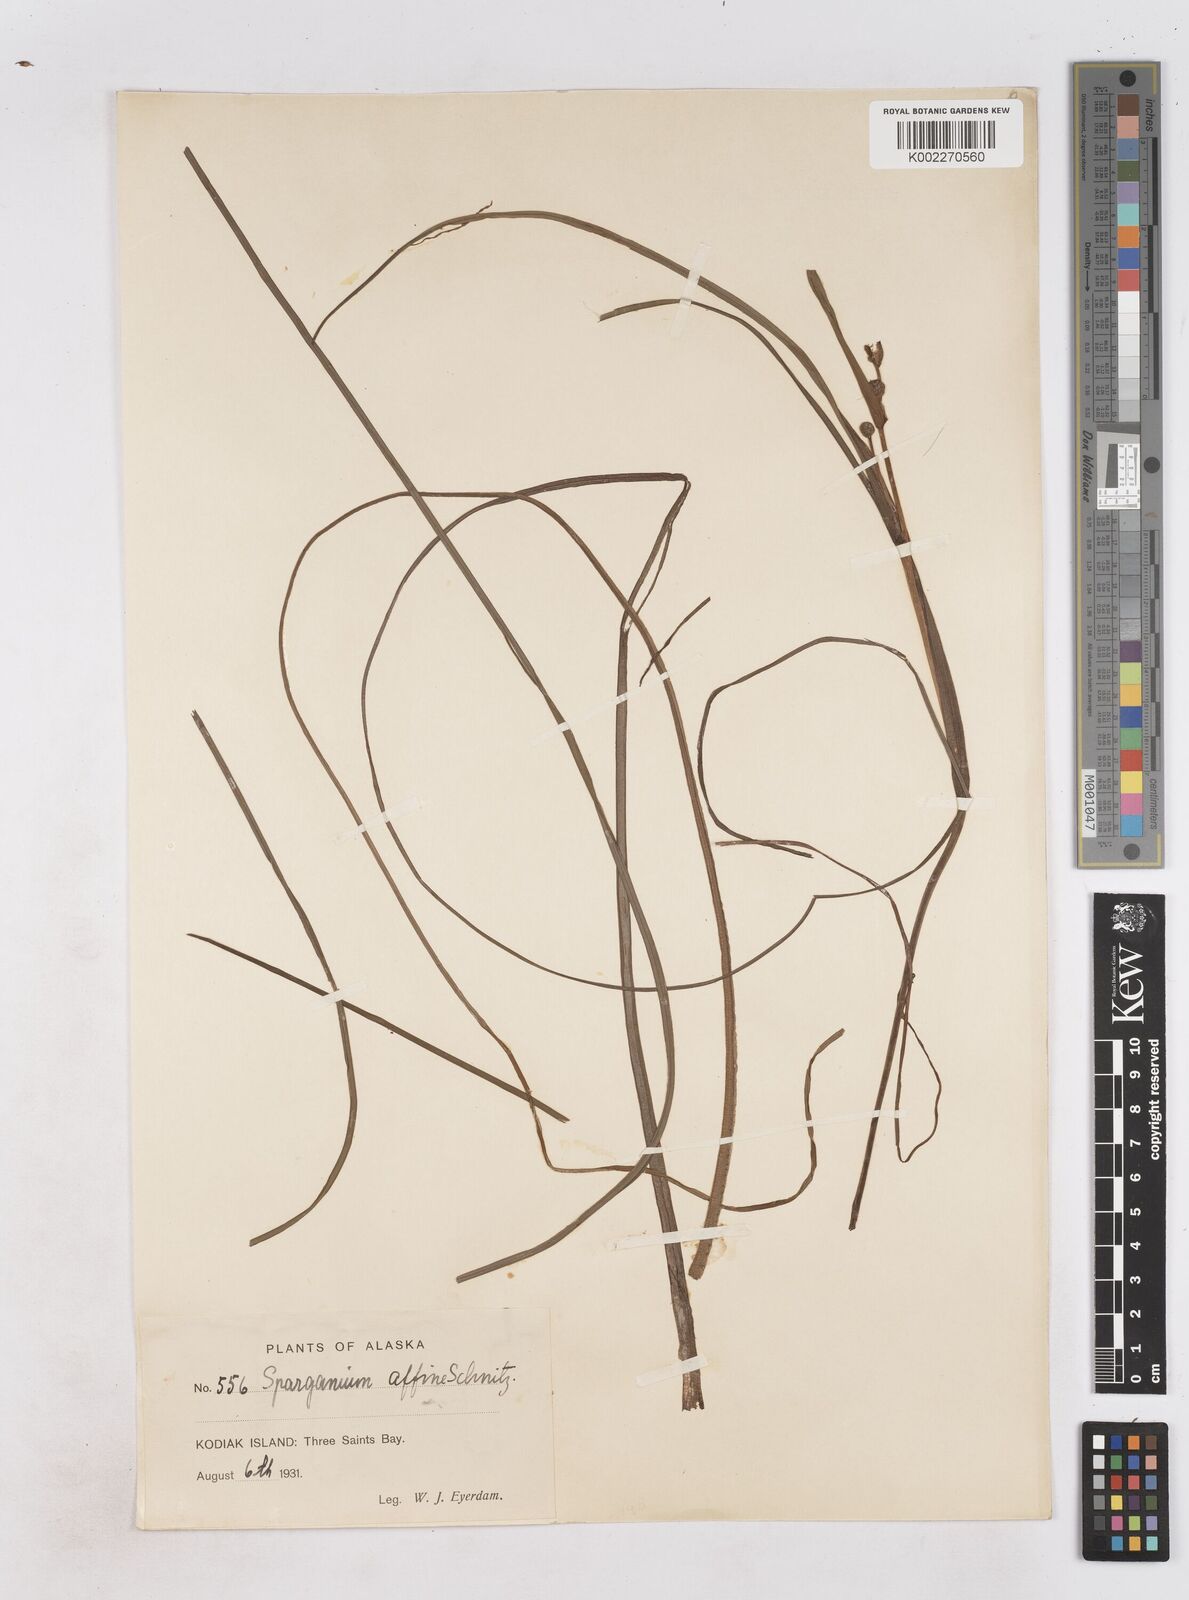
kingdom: Plantae
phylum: Tracheophyta
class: Liliopsida
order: Poales
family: Typhaceae
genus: Sparganium
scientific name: Sparganium angustifolium
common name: Floating bur-reed
